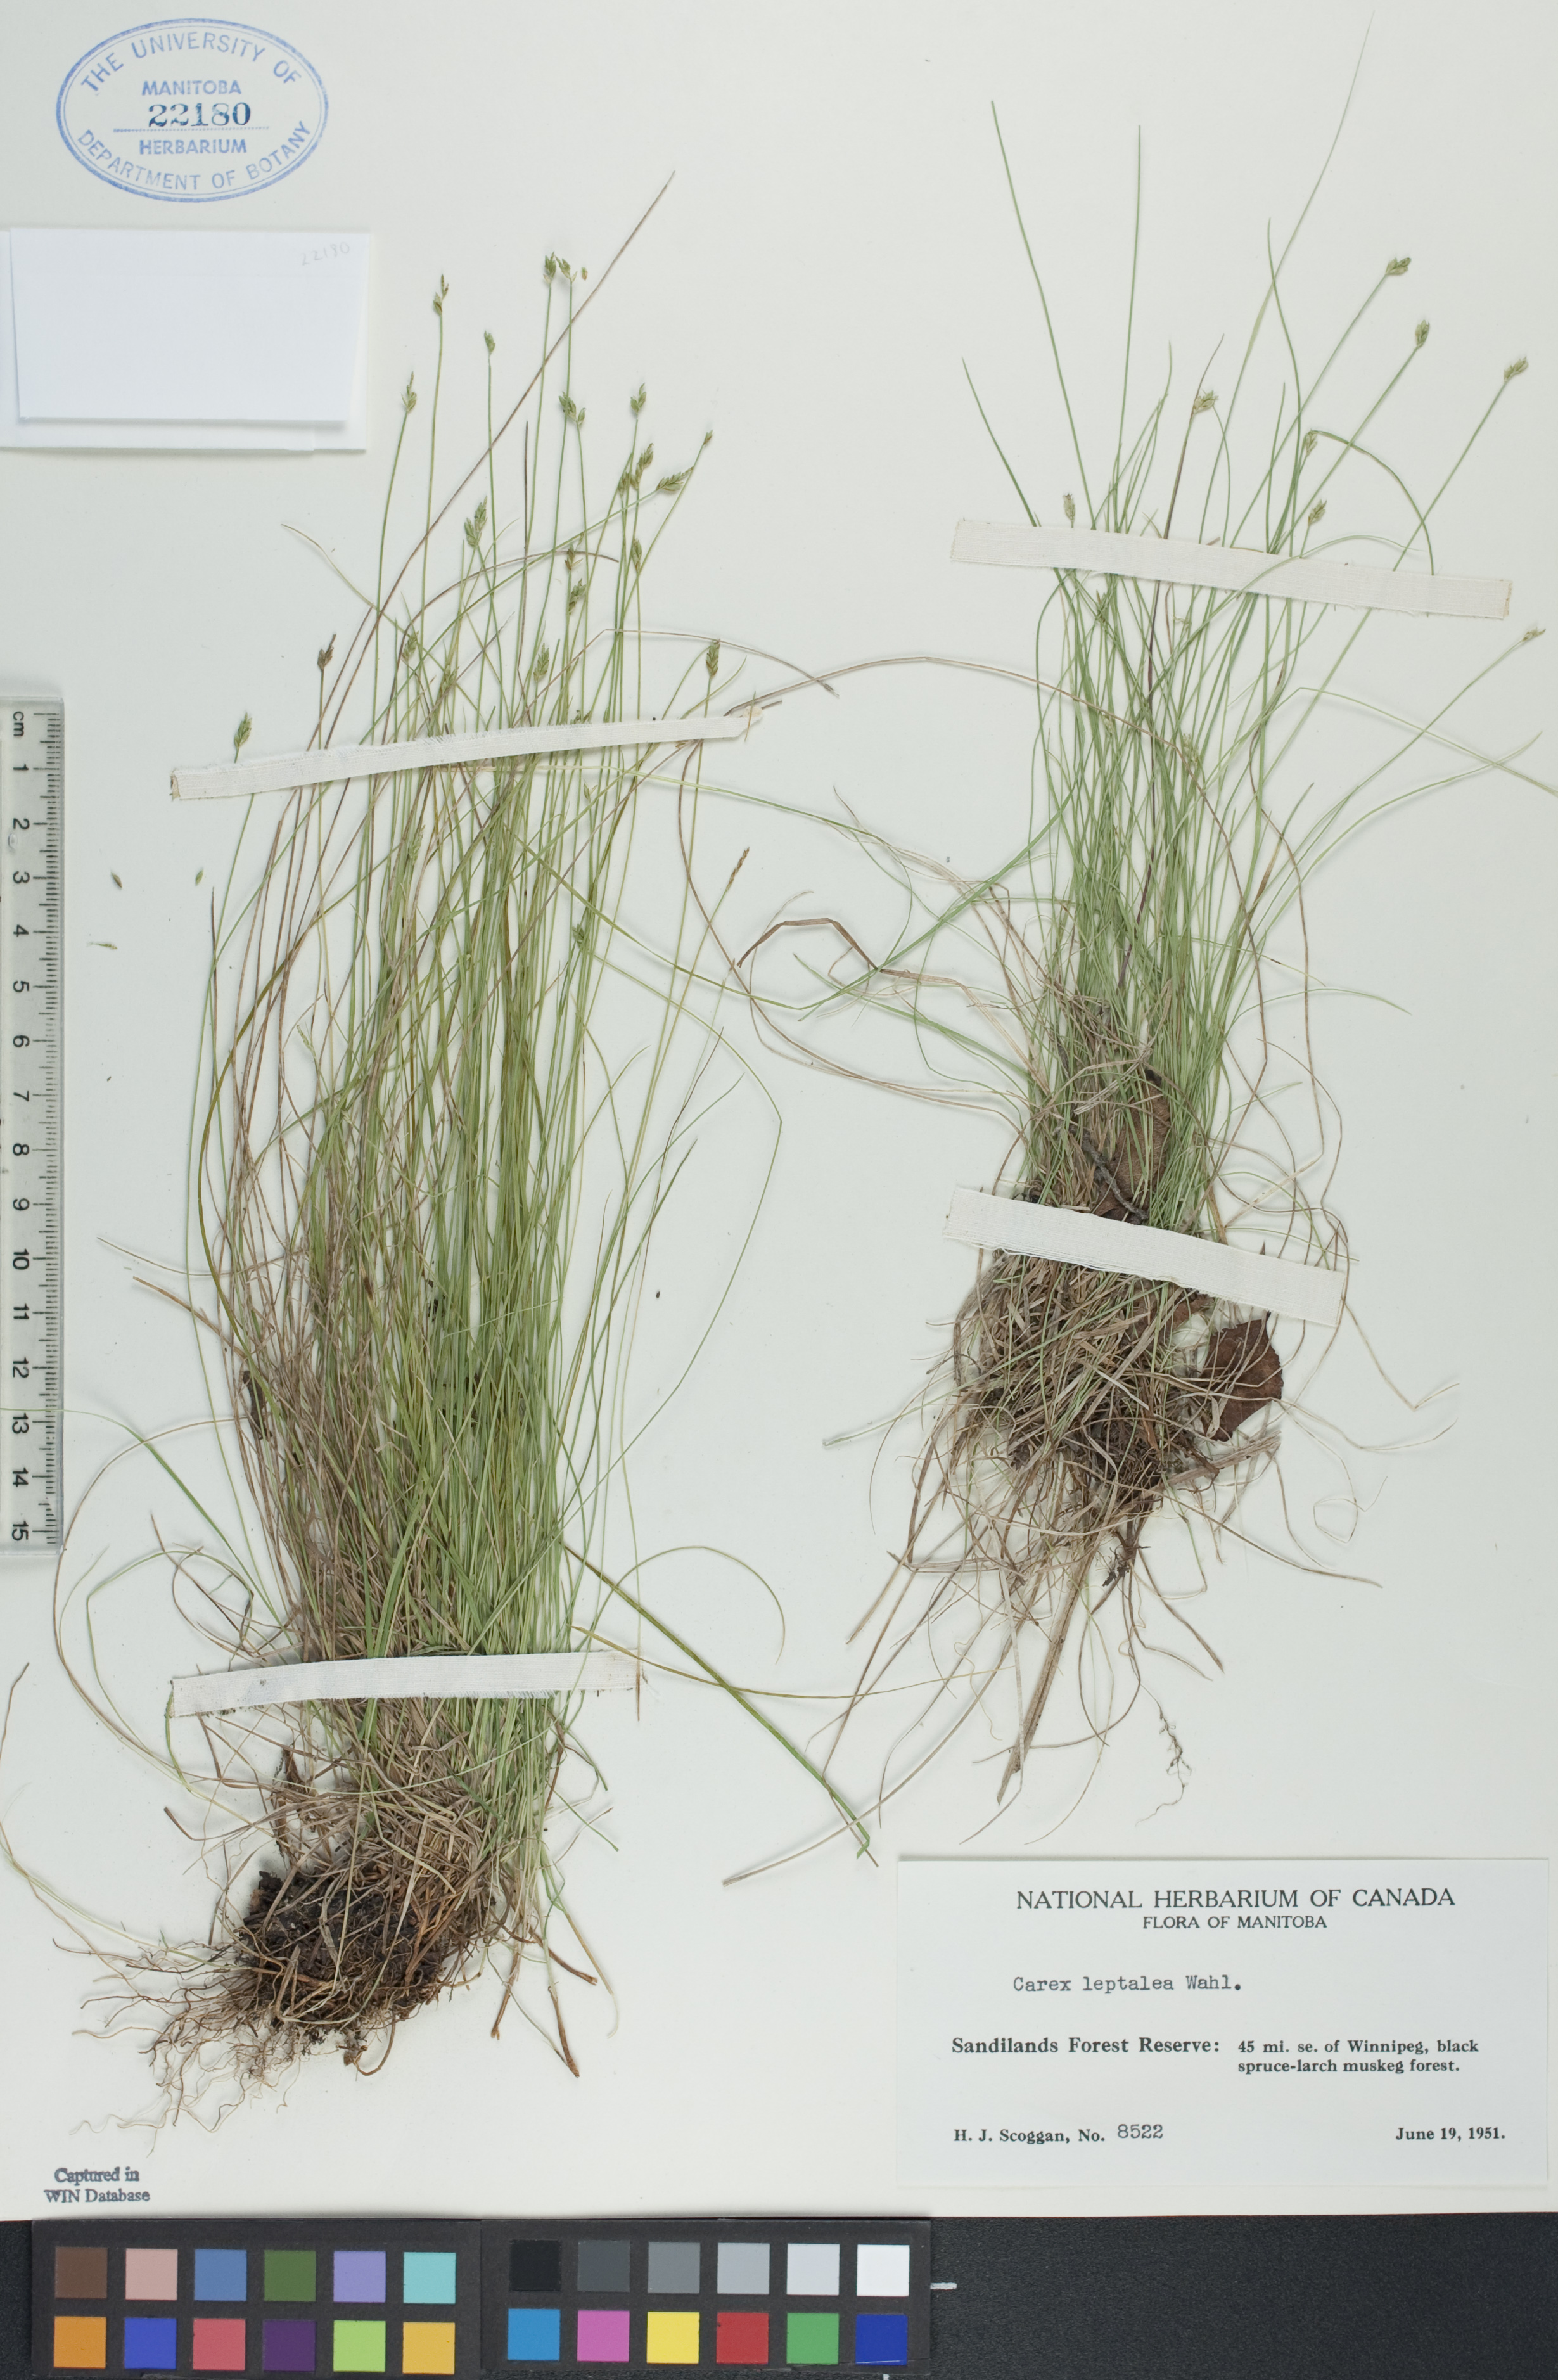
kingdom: Plantae
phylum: Tracheophyta
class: Liliopsida
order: Poales
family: Cyperaceae
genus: Carex
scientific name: Carex leptalea
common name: Bristly-stalked sedge
